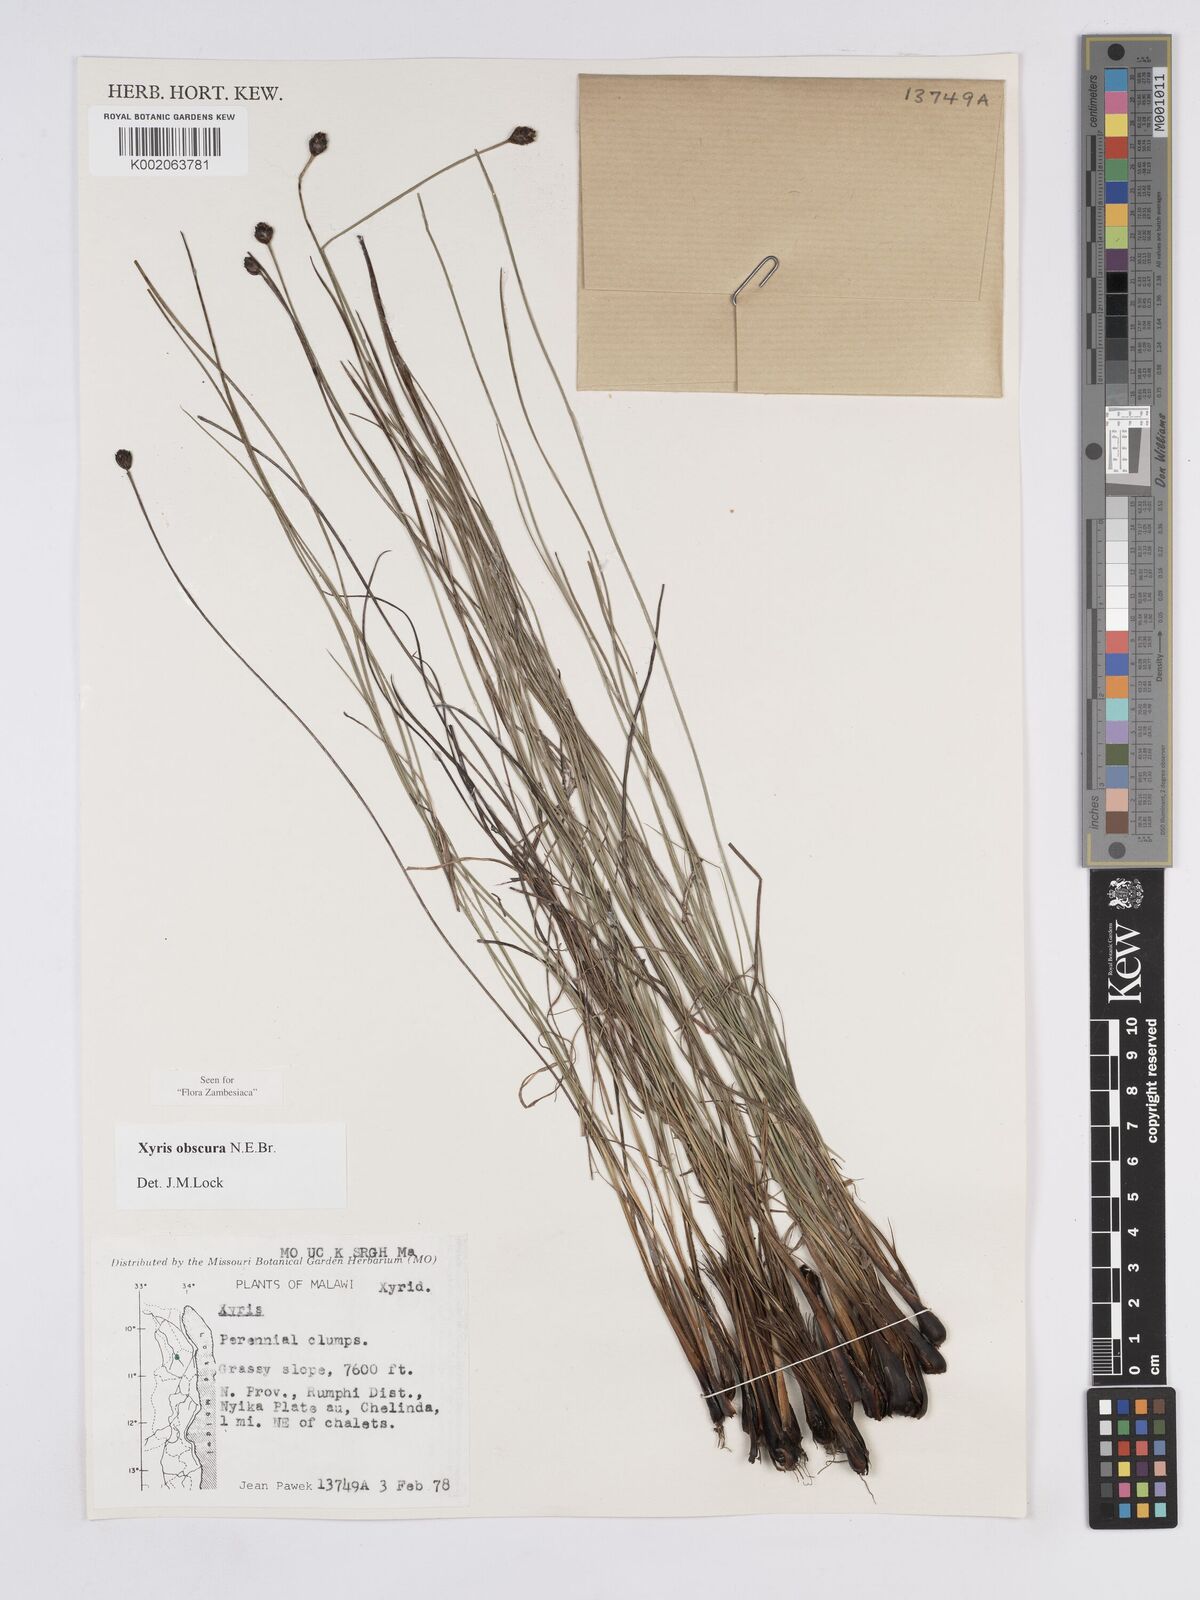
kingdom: Plantae
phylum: Tracheophyta
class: Liliopsida
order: Poales
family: Xyridaceae
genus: Xyris
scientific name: Xyris obscura
